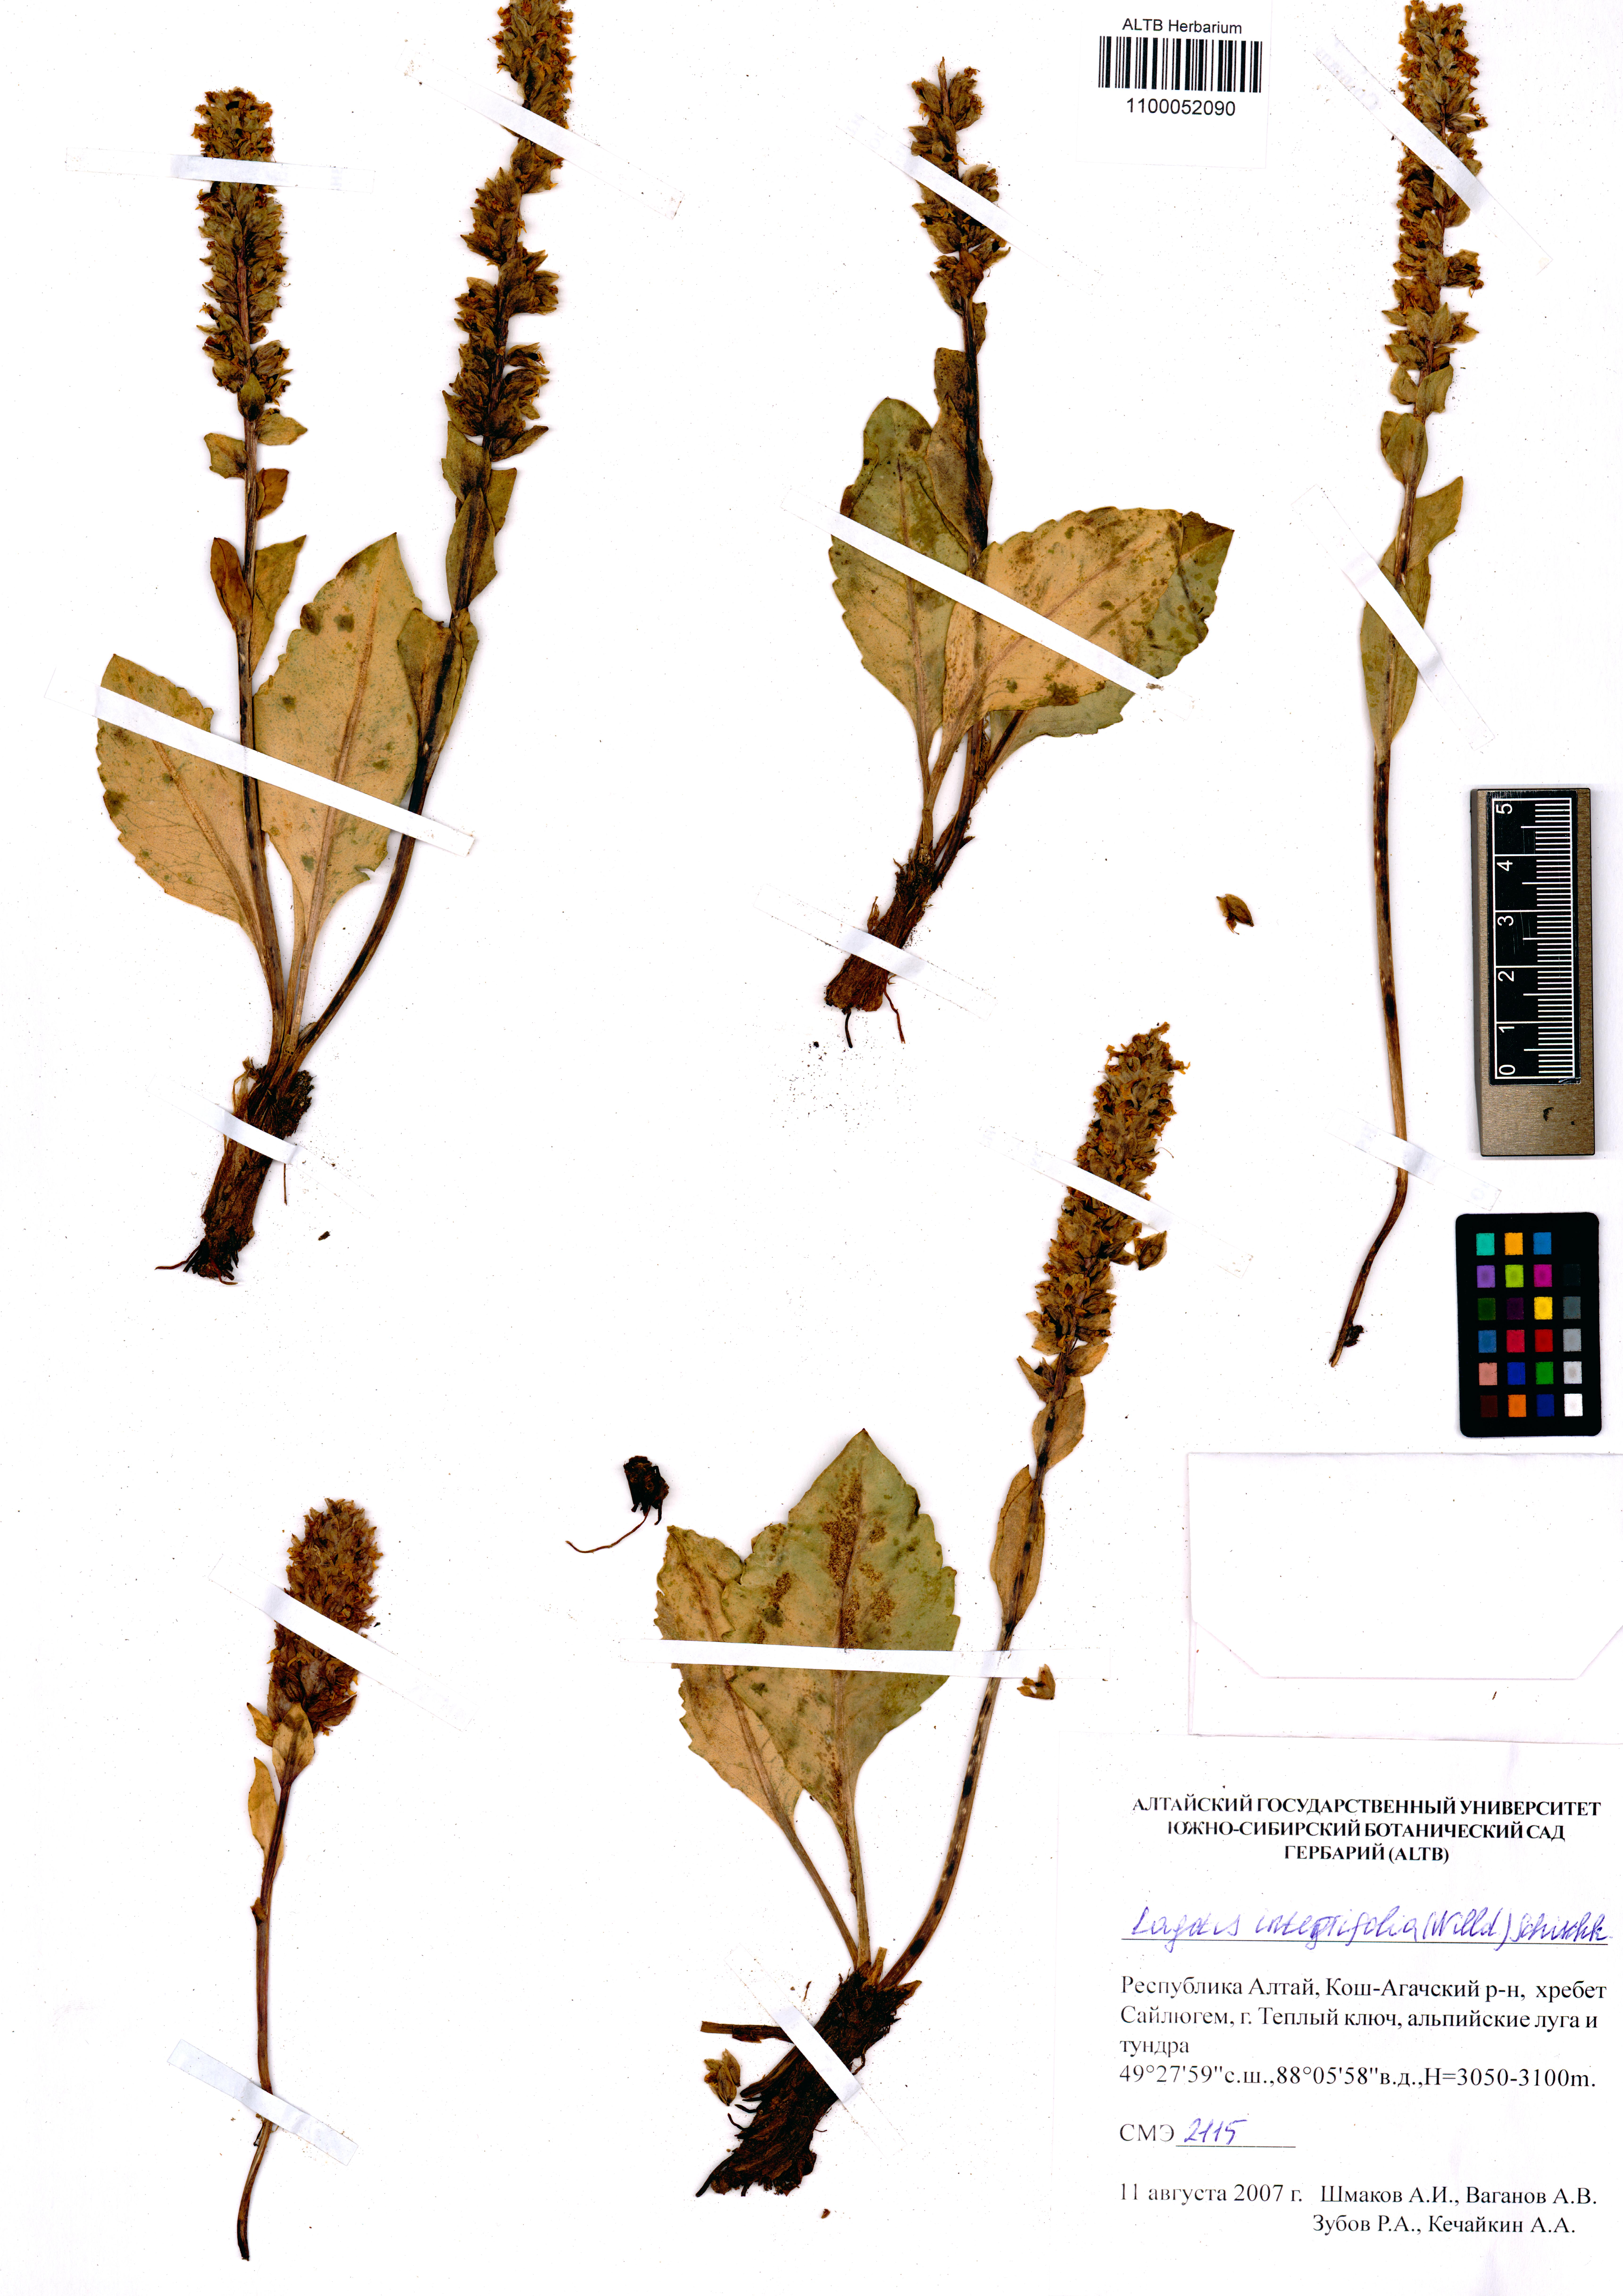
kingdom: Plantae
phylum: Tracheophyta
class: Magnoliopsida
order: Lamiales
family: Plantaginaceae
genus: Lagotis
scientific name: Lagotis integrifolia
